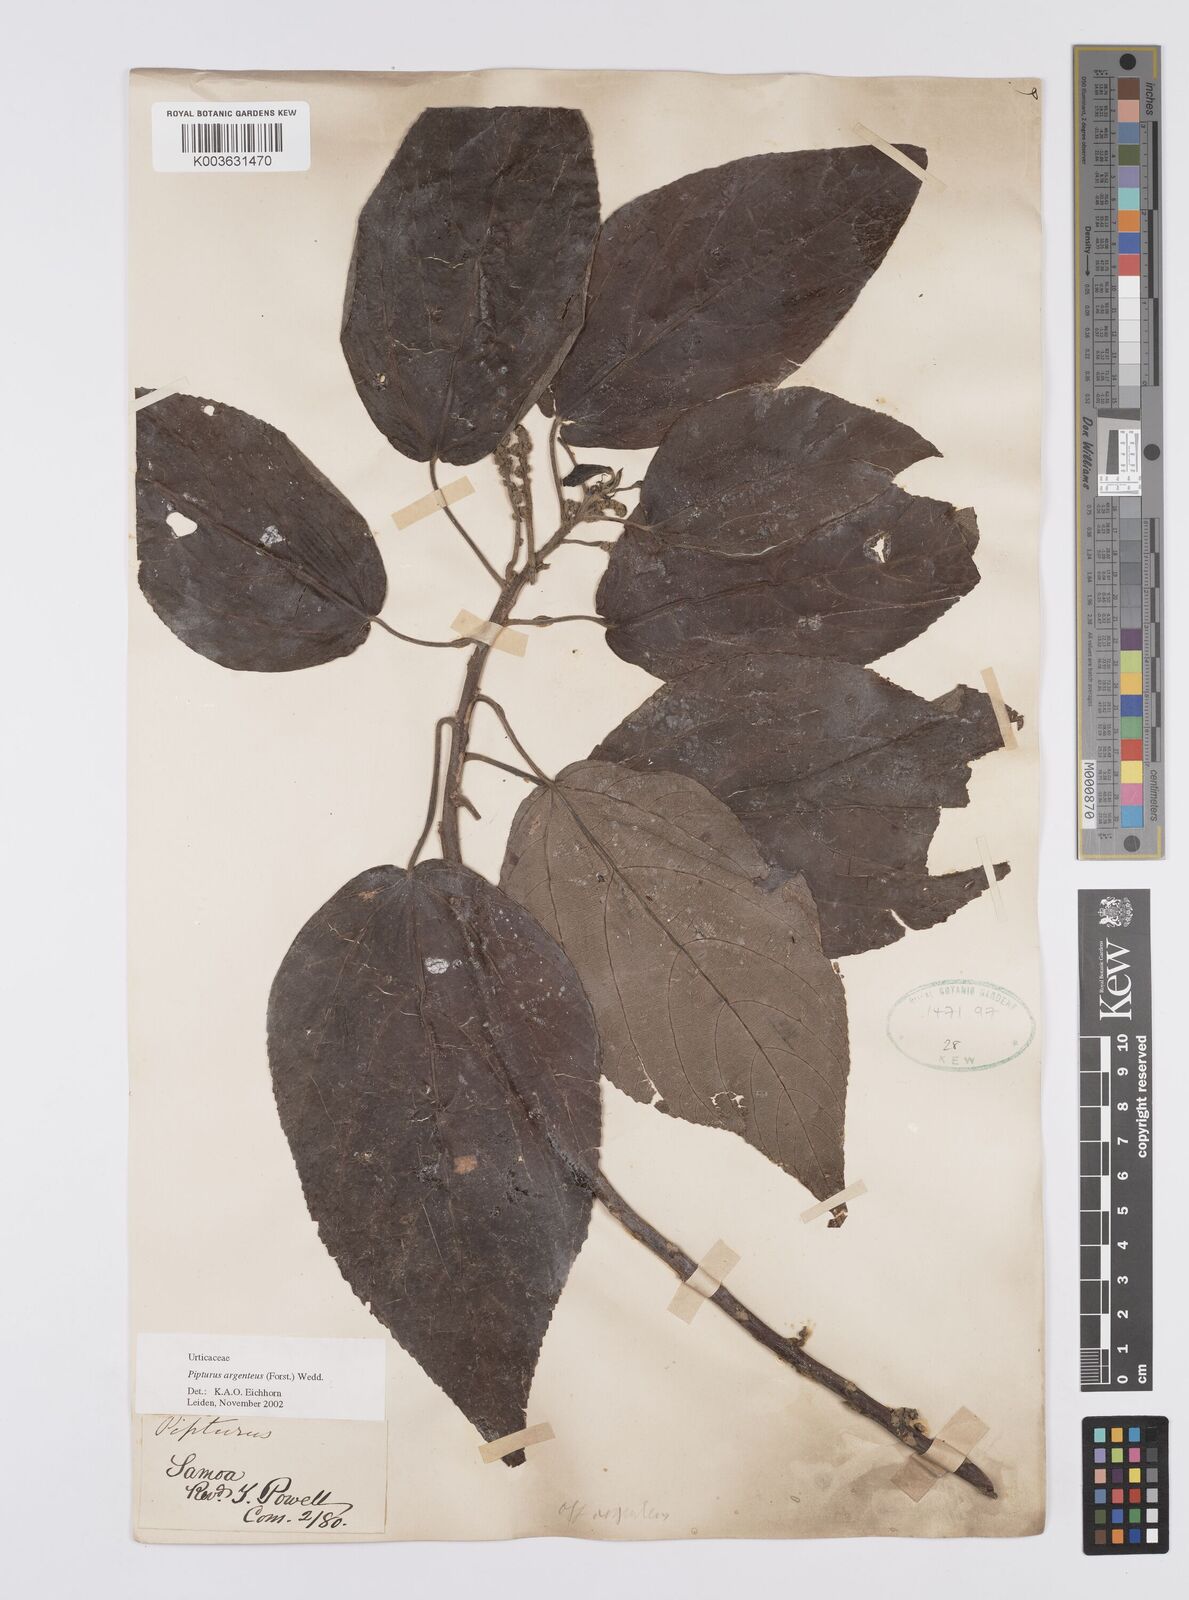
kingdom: Plantae
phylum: Tracheophyta
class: Magnoliopsida
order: Rosales
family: Urticaceae
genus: Pipturus
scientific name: Pipturus argenteus
